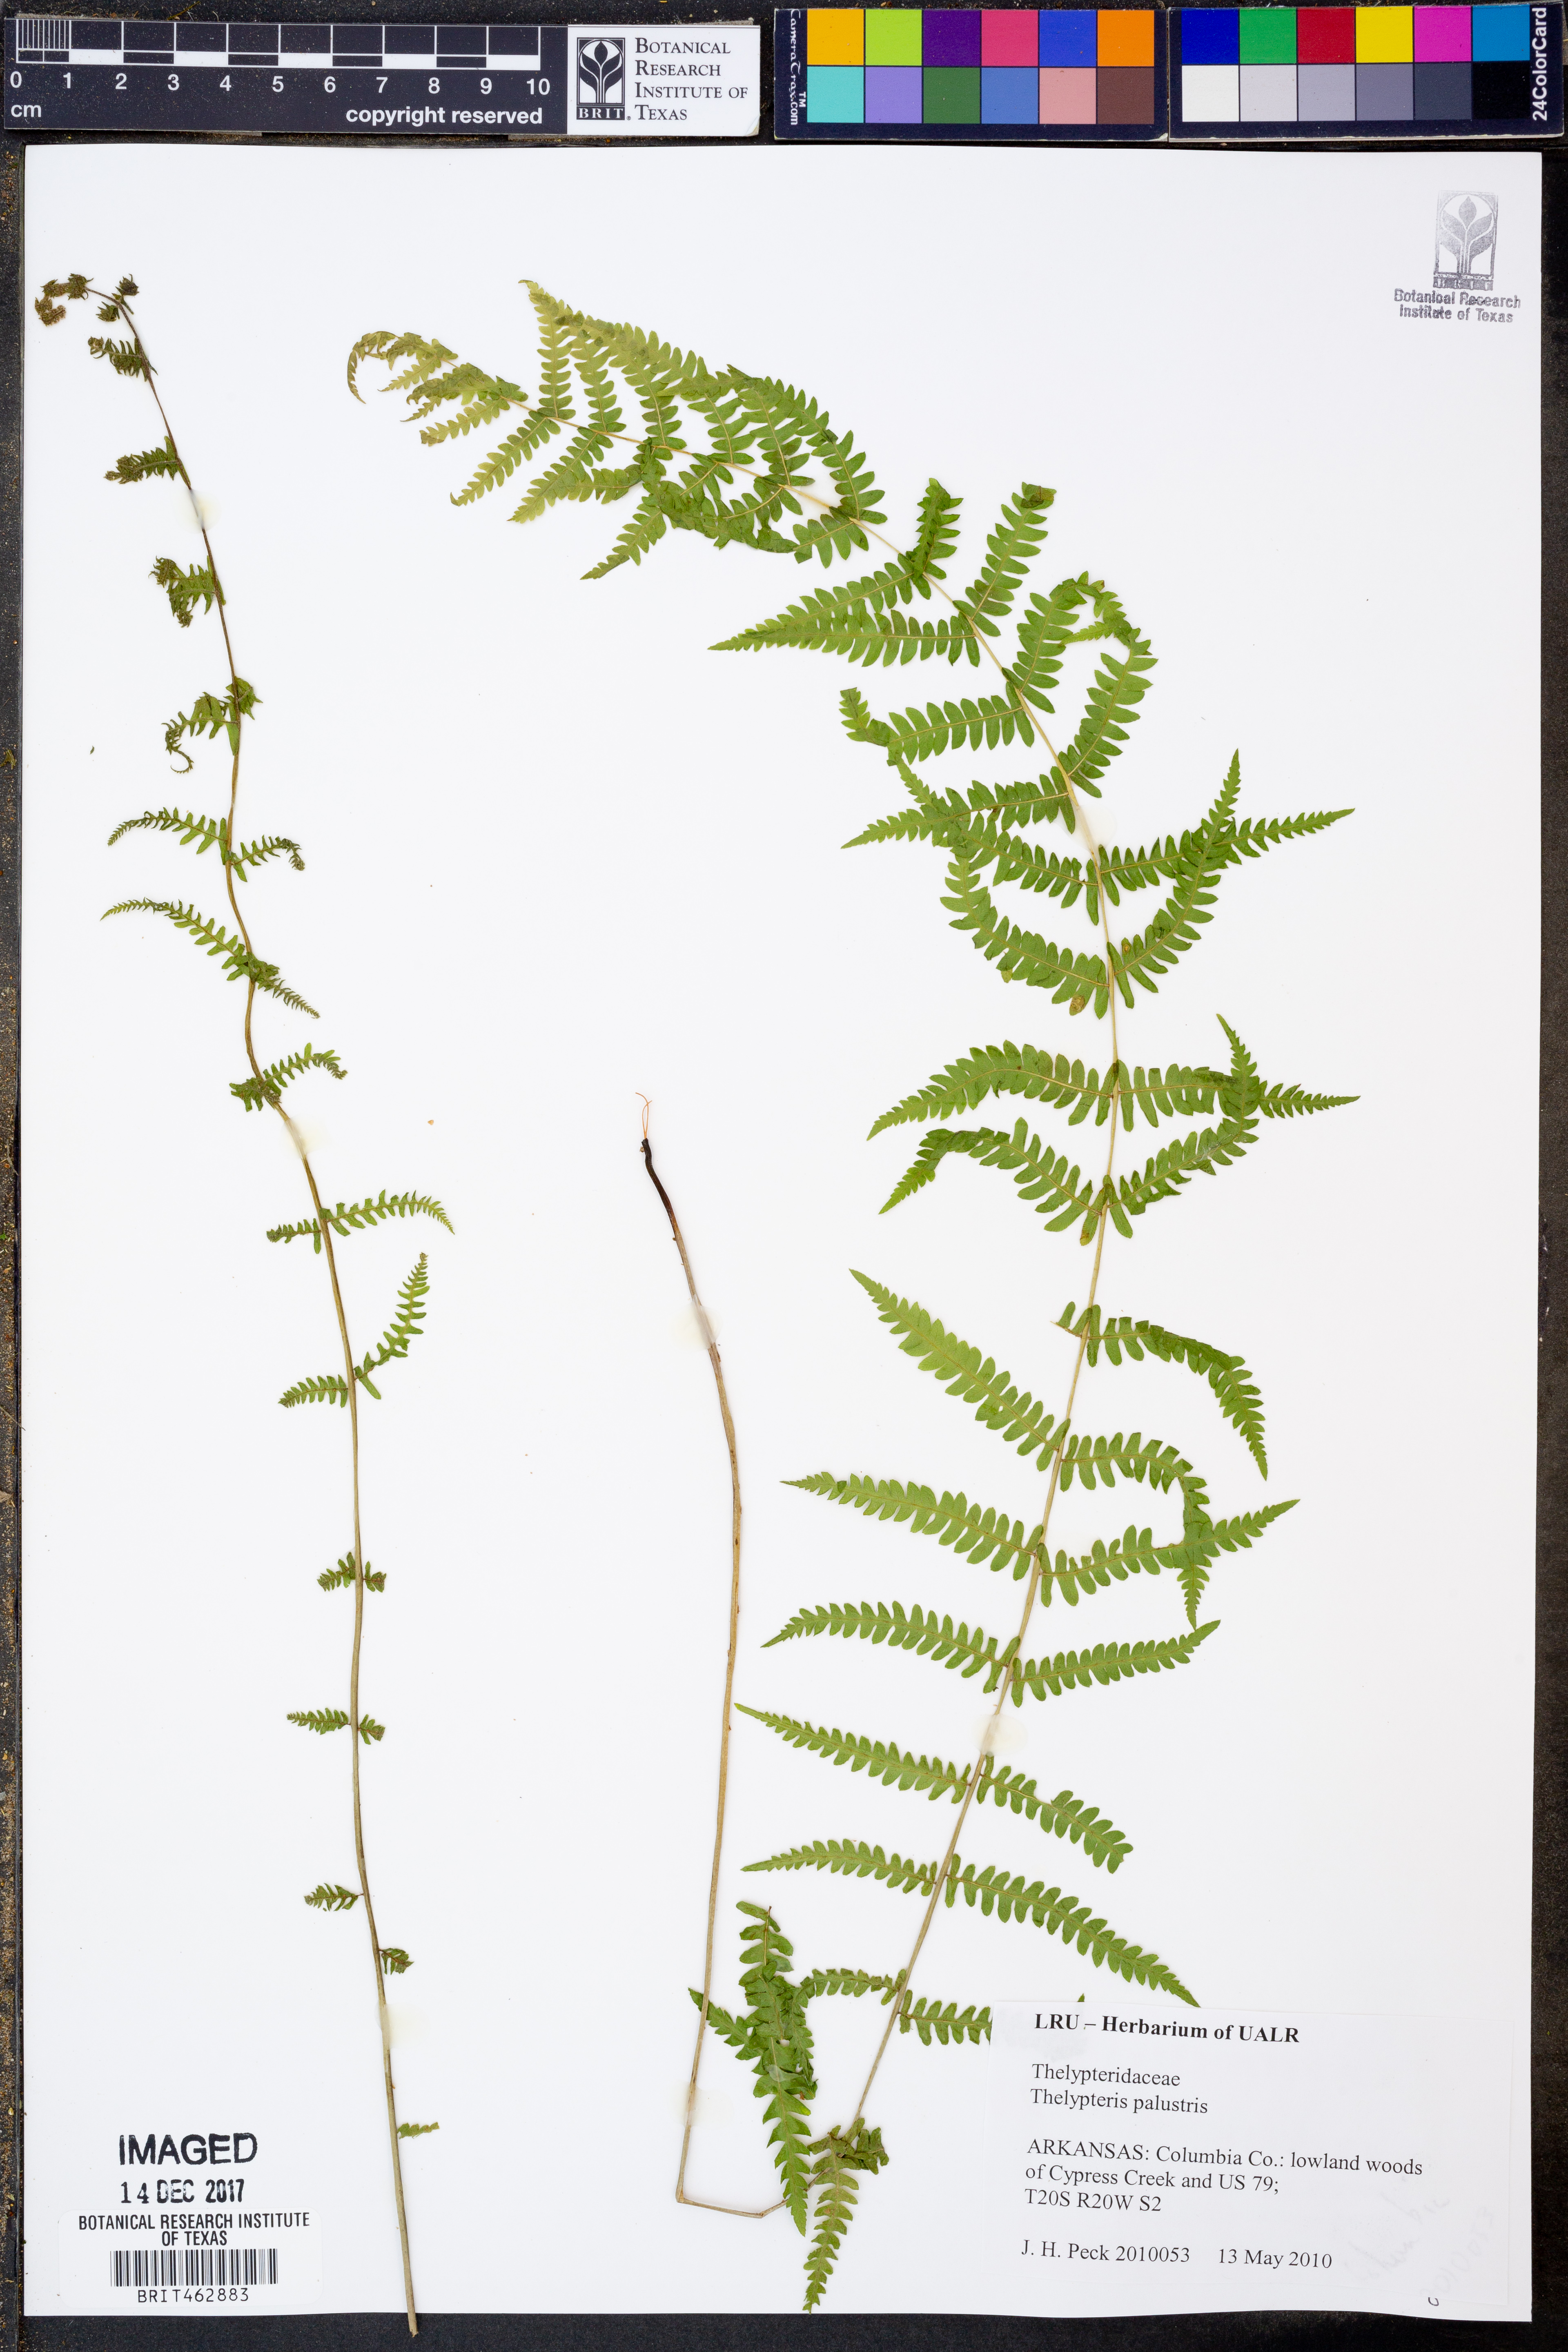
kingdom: Plantae
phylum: Tracheophyta
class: Polypodiopsida
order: Polypodiales
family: Thelypteridaceae
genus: Thelypteris
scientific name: Thelypteris palustris
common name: Marsh fern
